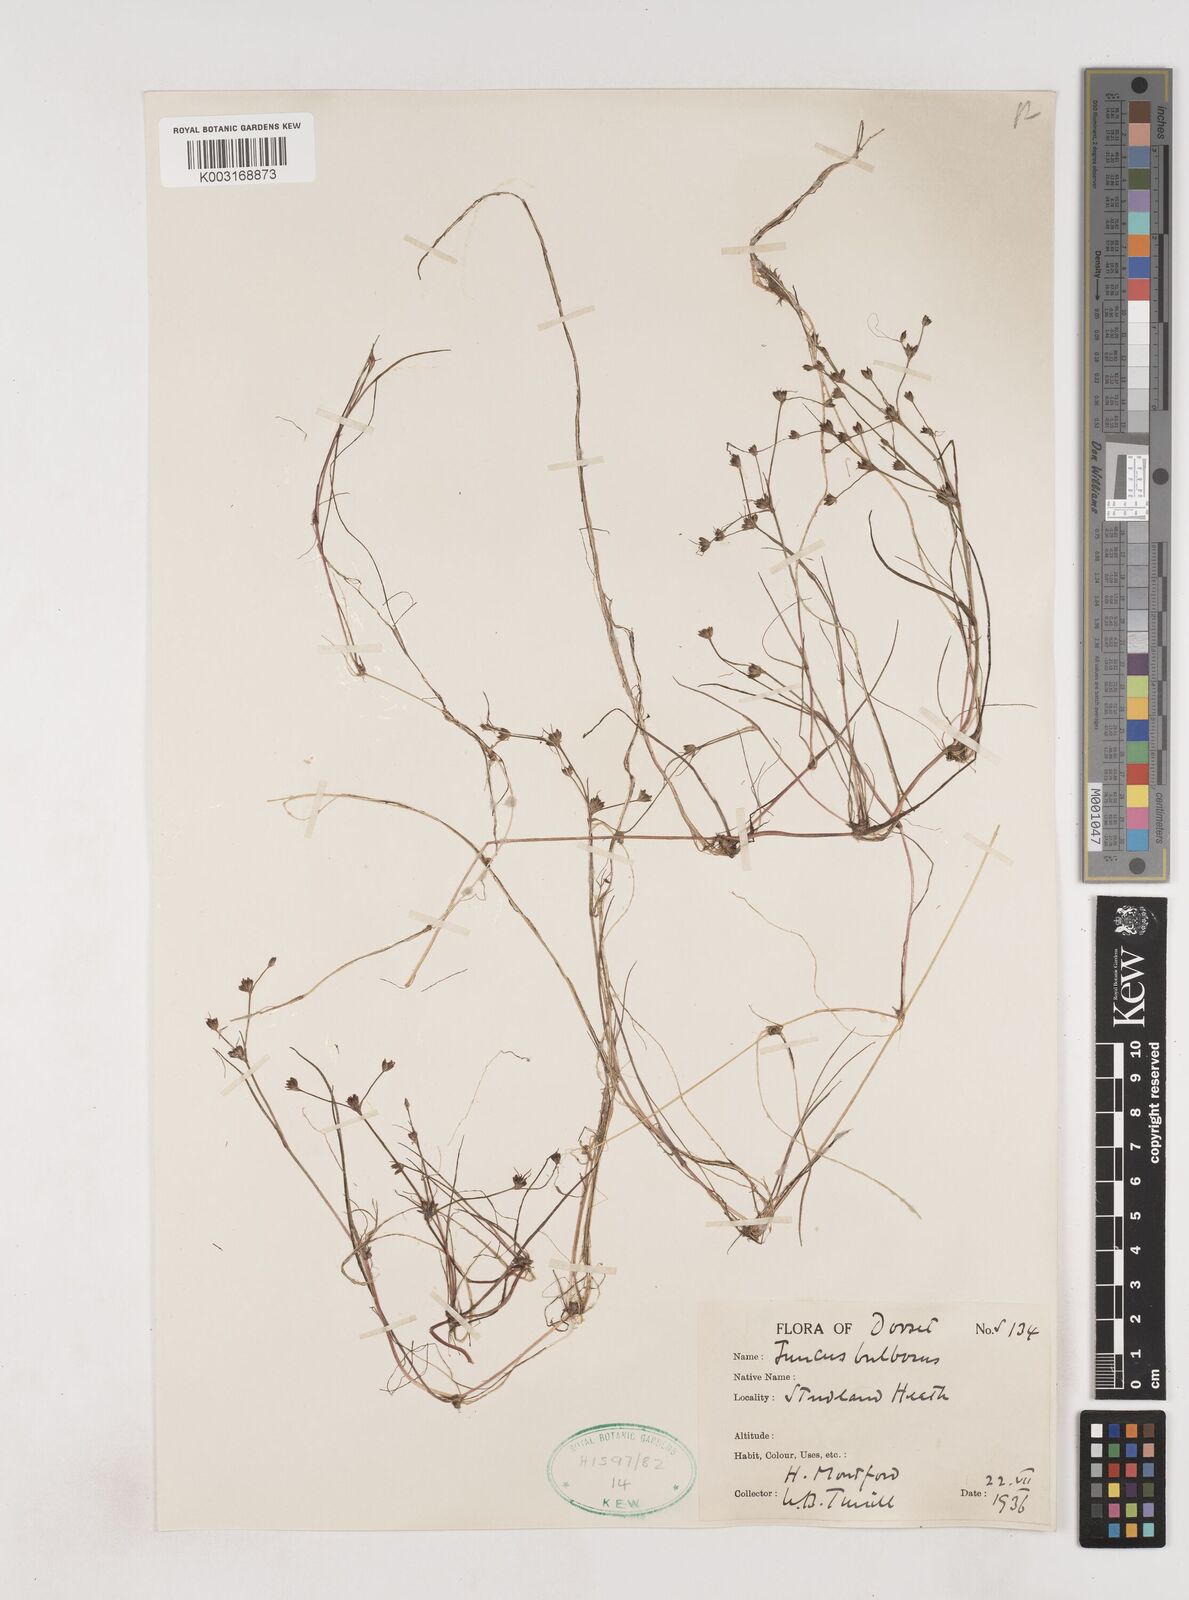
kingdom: Plantae
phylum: Tracheophyta
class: Liliopsida
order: Poales
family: Juncaceae
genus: Juncus
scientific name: Juncus bulbosus
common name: Bulbous rush
